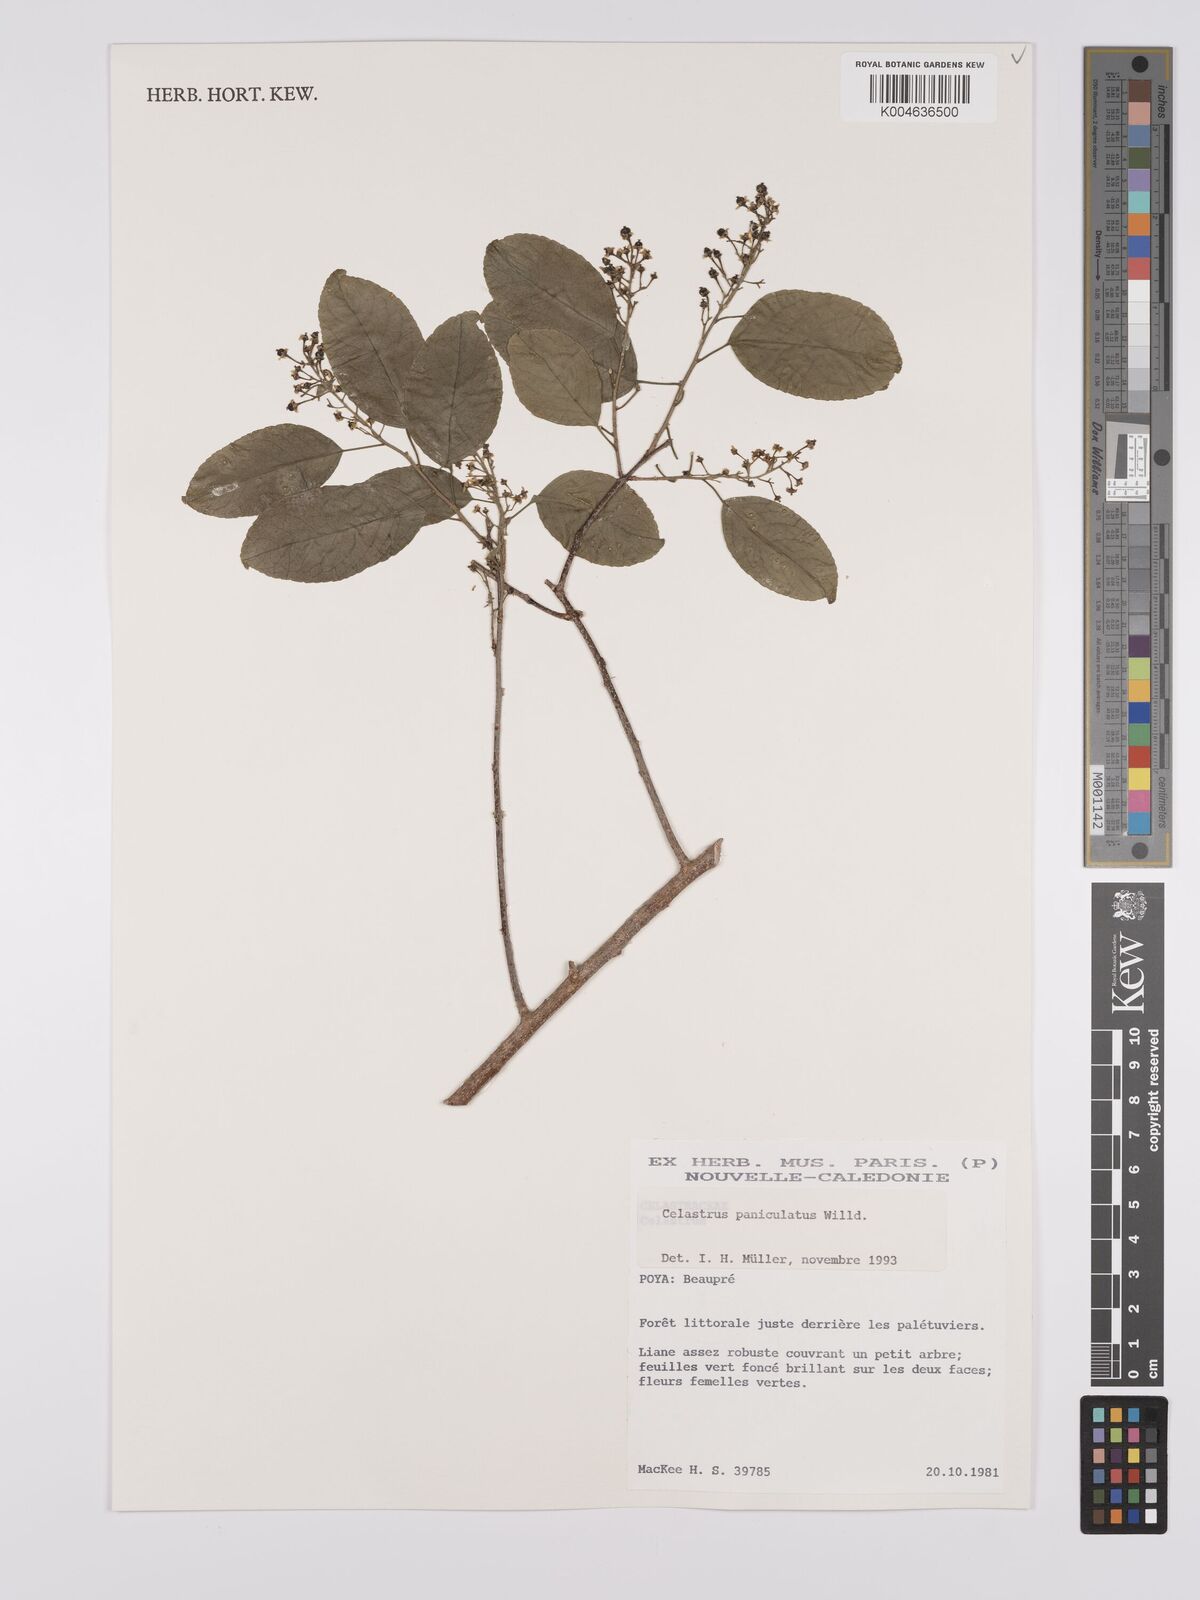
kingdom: Plantae
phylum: Tracheophyta
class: Magnoliopsida
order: Celastrales
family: Celastraceae
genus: Celastrus
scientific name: Celastrus paniculatus
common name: Oriental bittersweet; staff vine
